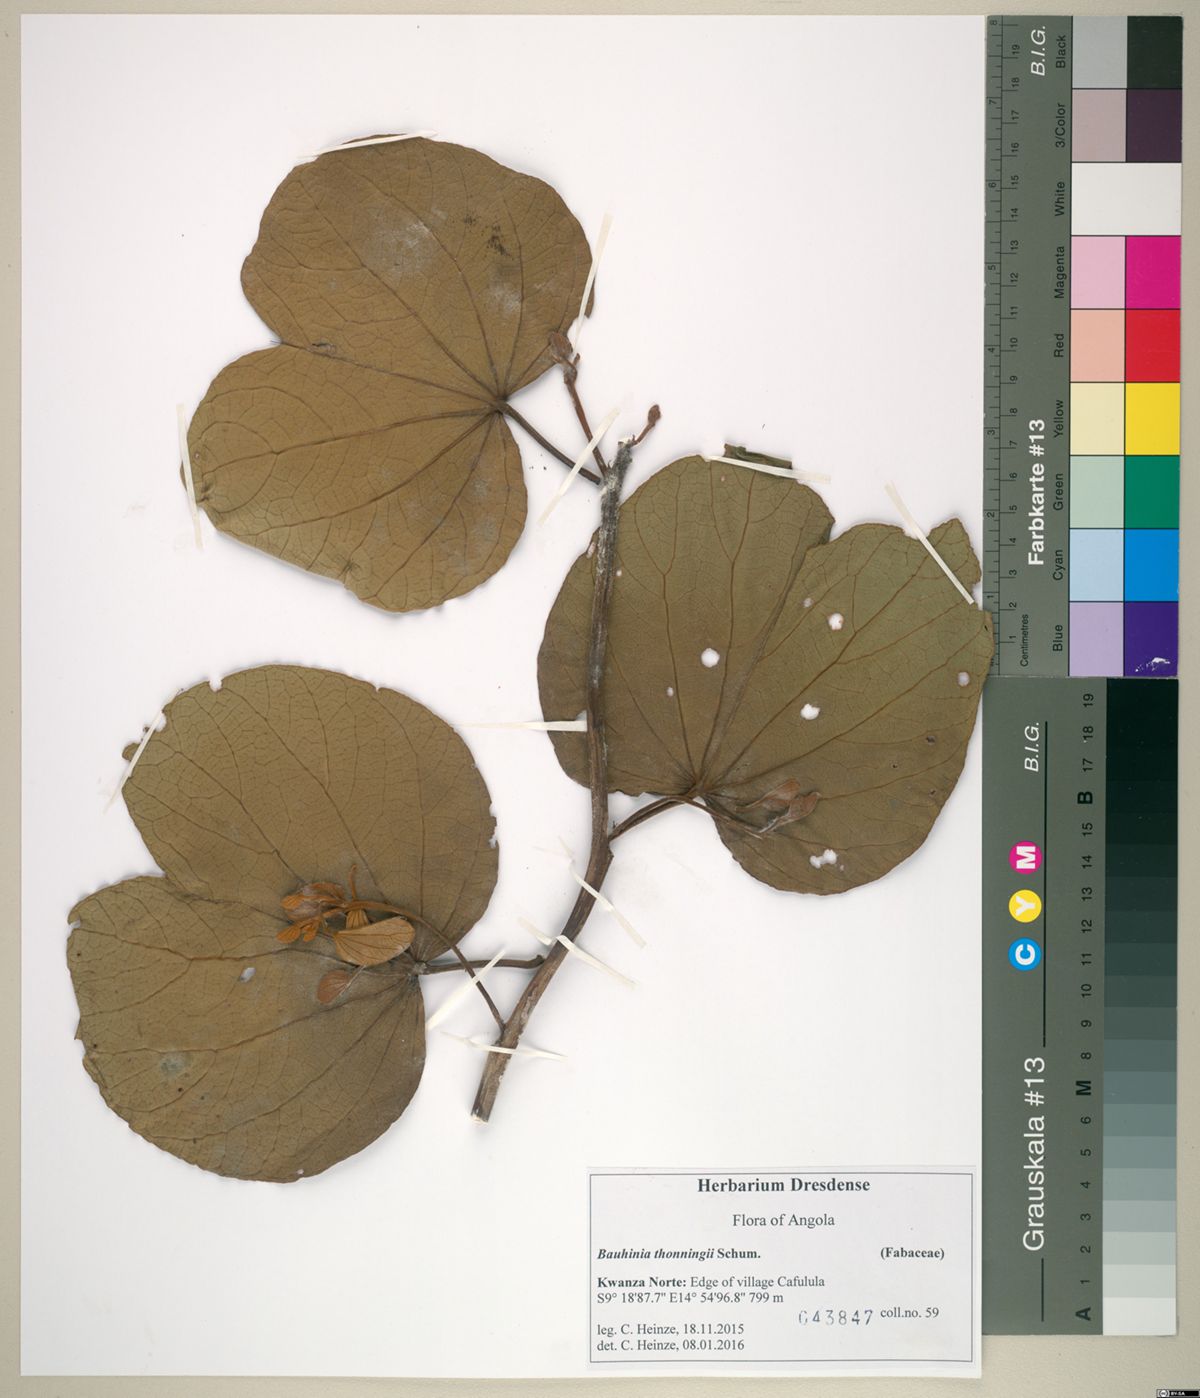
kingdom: Plantae
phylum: Tracheophyta
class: Magnoliopsida
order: Fabales
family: Fabaceae
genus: Piliostigma
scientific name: Piliostigma thonningii
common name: Kao
